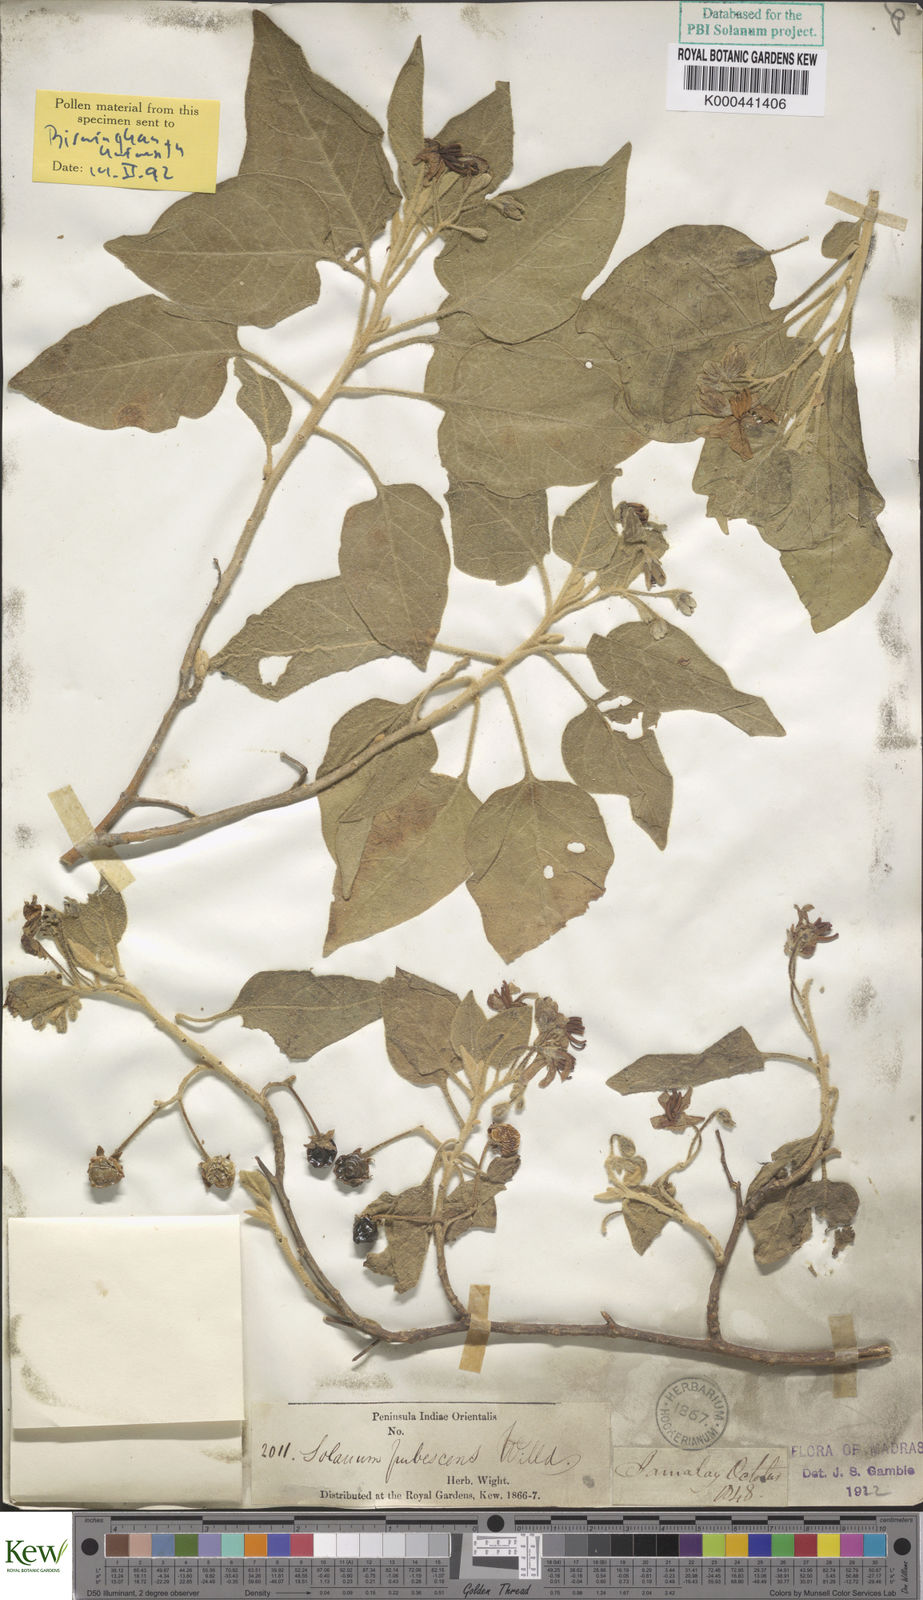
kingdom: Plantae
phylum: Tracheophyta
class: Magnoliopsida
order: Solanales
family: Solanaceae
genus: Solanum
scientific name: Solanum pubescens
